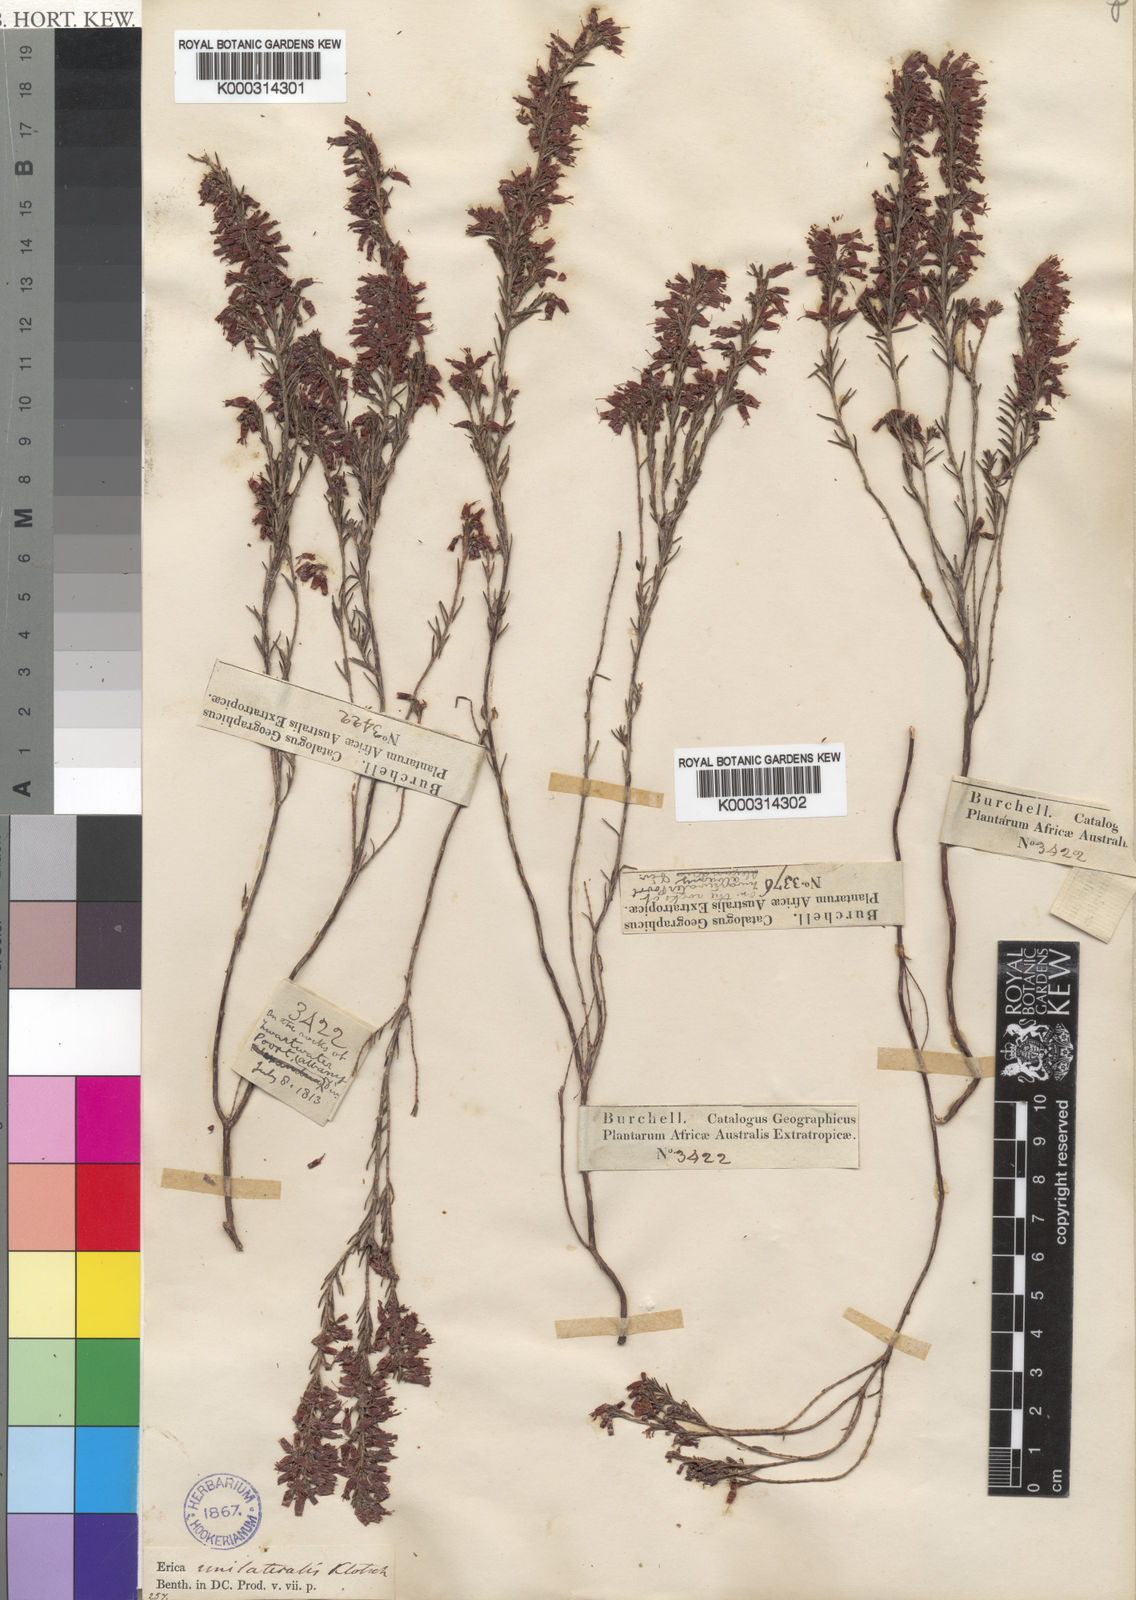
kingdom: Plantae
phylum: Tracheophyta
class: Magnoliopsida
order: Ericales
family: Ericaceae
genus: Erica
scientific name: Erica unilateralis
